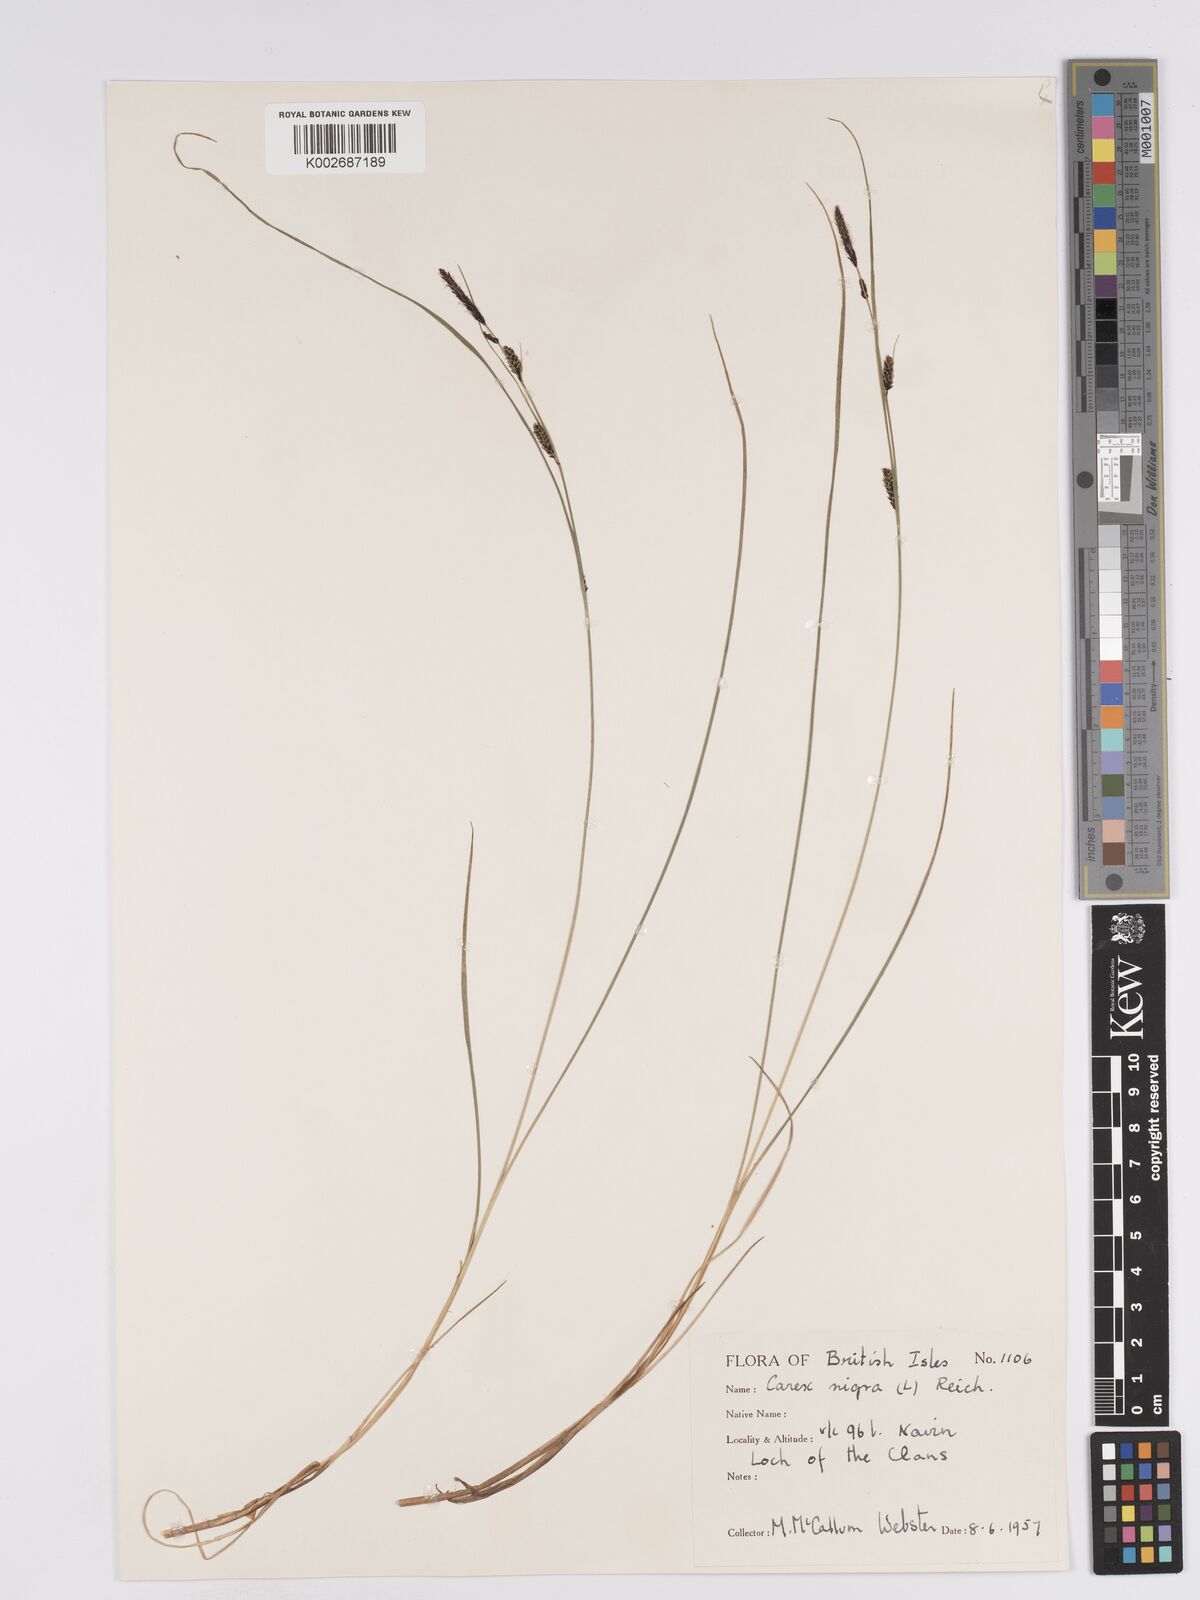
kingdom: Plantae
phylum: Tracheophyta
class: Liliopsida
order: Poales
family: Cyperaceae
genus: Carex
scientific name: Carex nigra
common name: Common sedge
